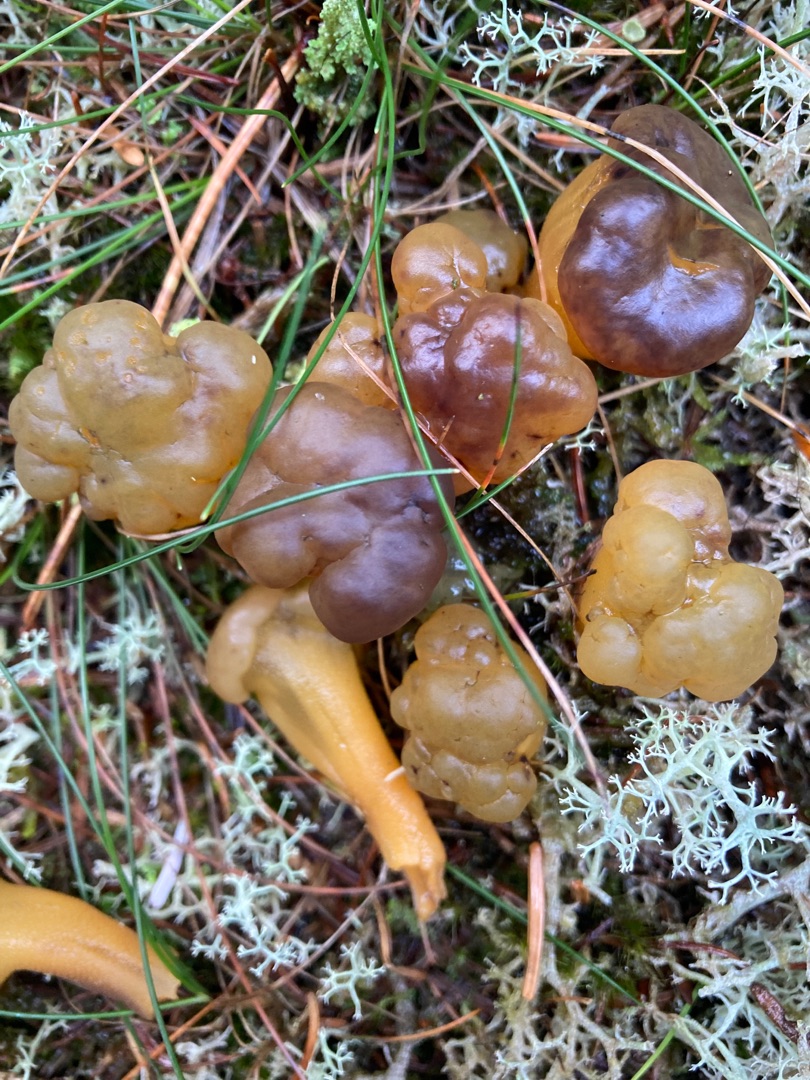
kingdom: Fungi
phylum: Ascomycota
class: Leotiomycetes
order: Leotiales
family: Leotiaceae
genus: Leotia
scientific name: Leotia
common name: Ravsvamp
